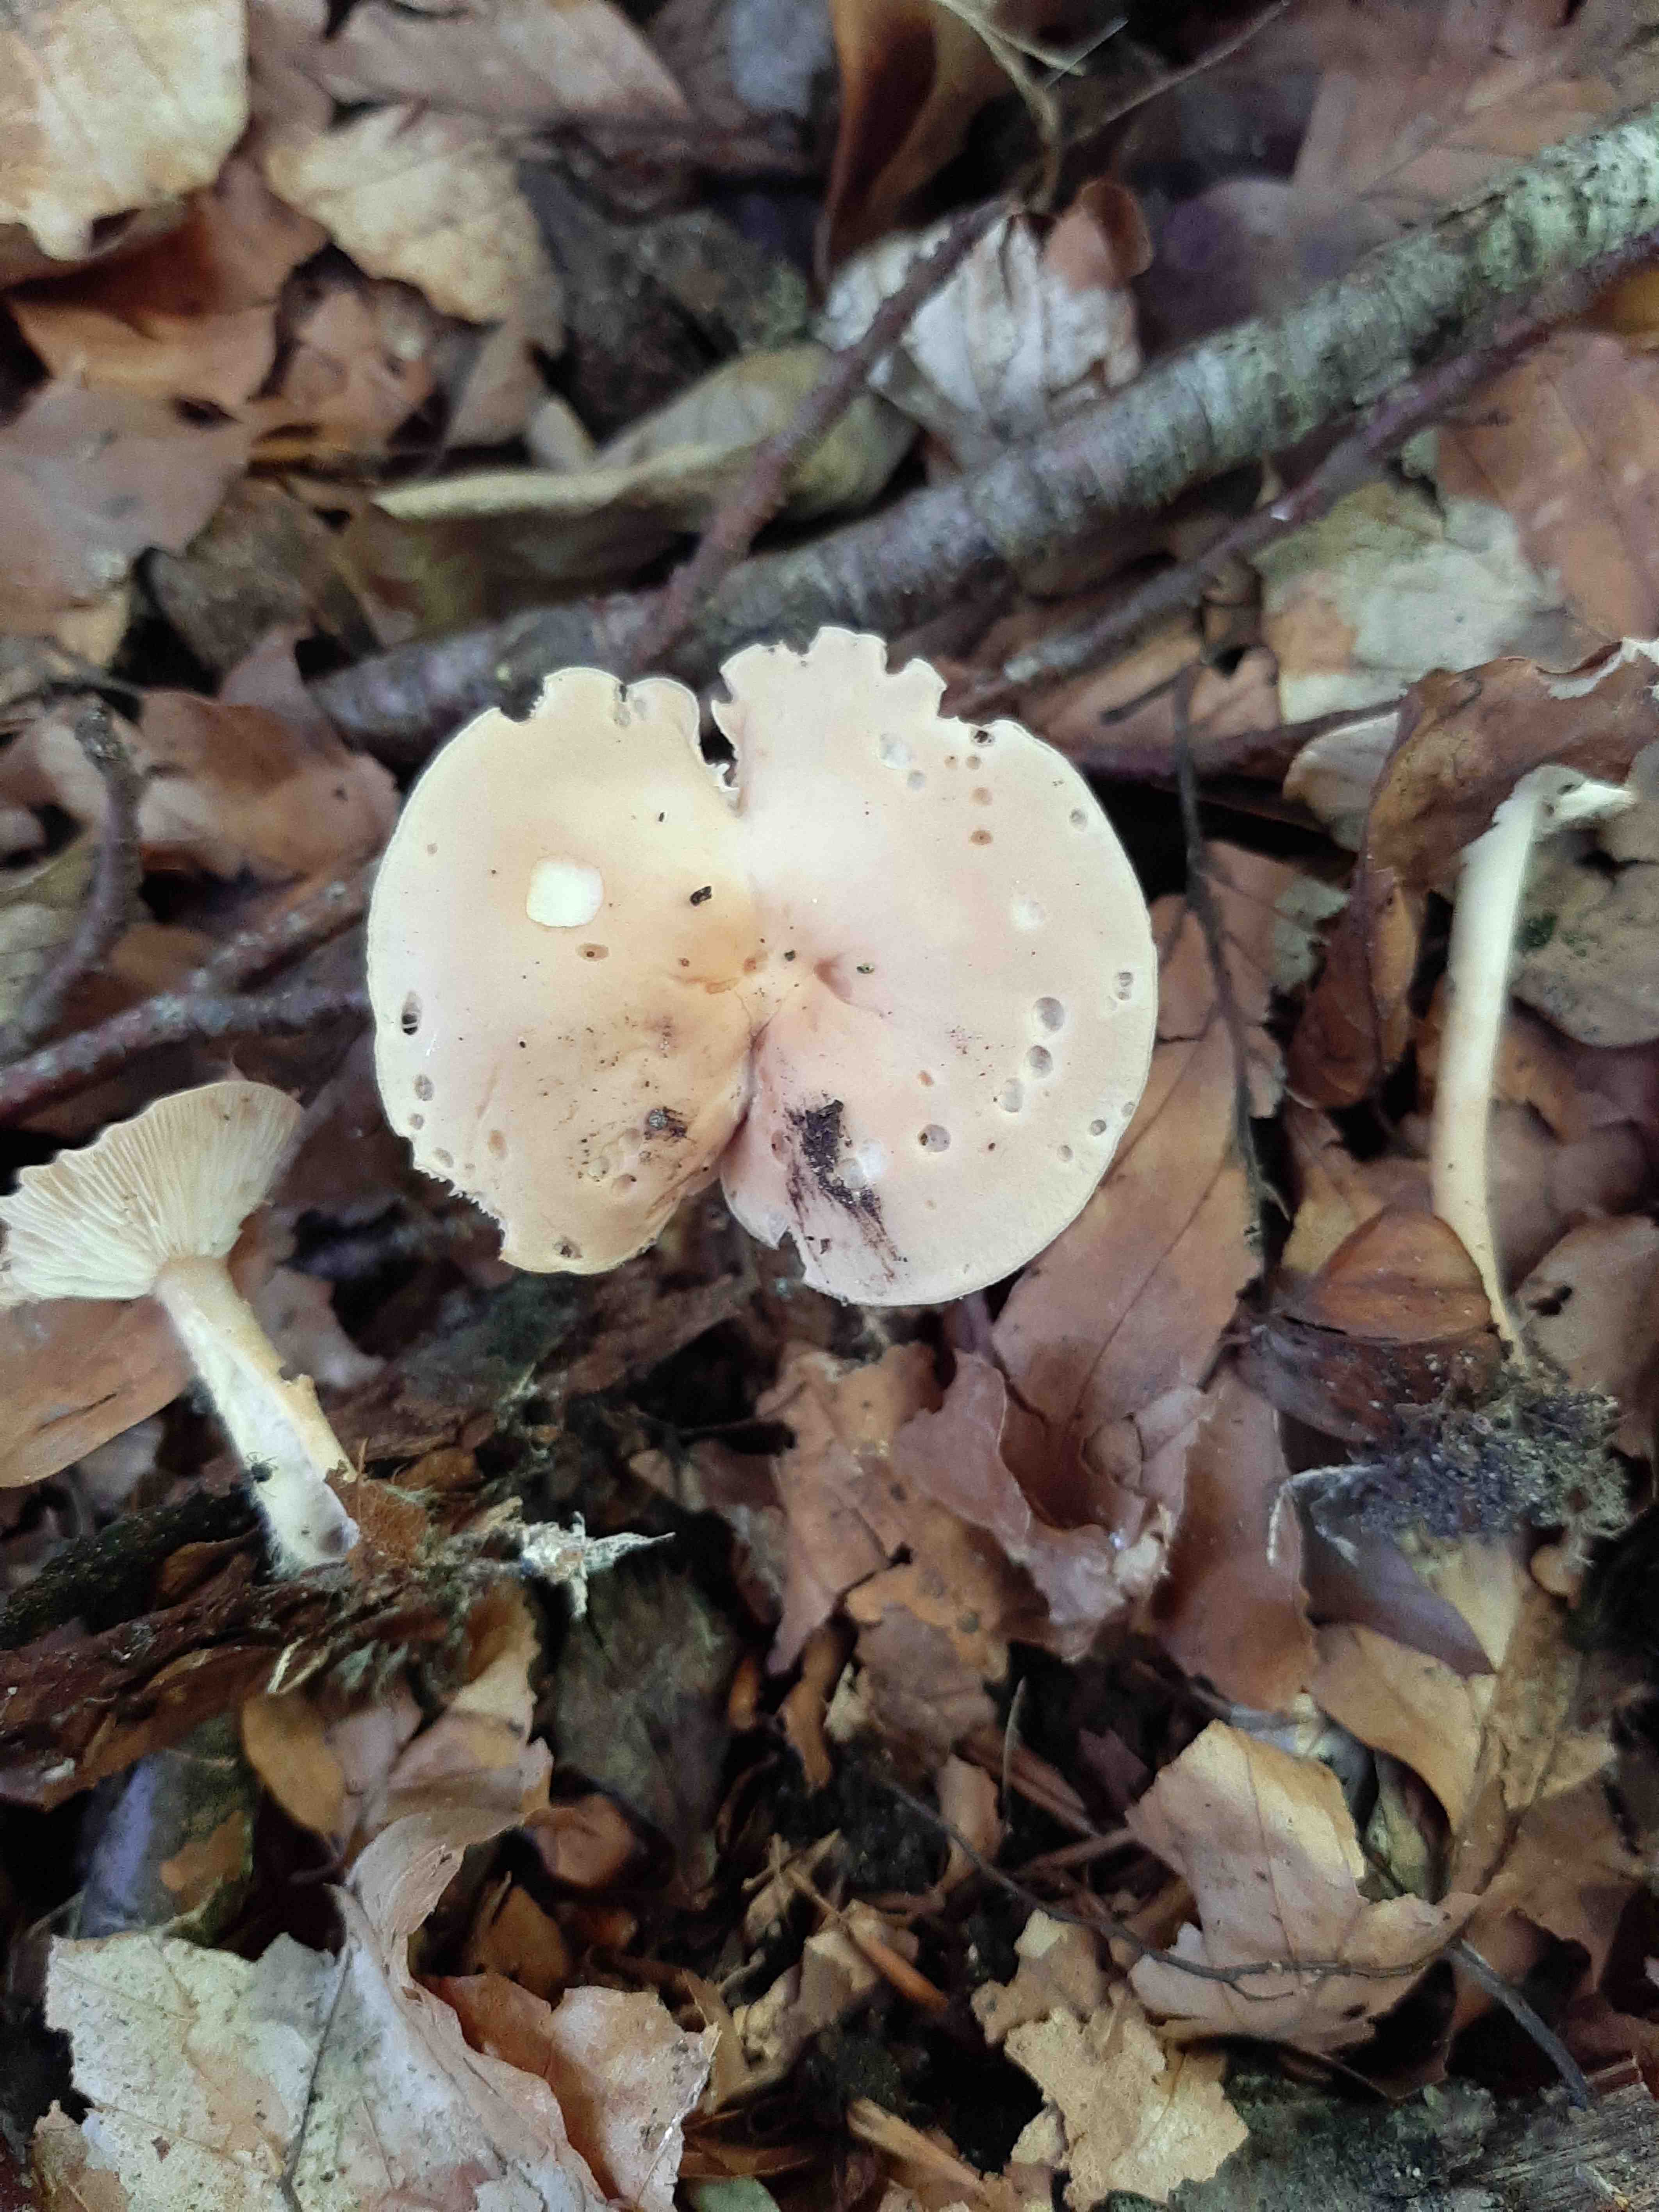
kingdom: Fungi
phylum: Basidiomycota
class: Agaricomycetes
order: Agaricales
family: Omphalotaceae
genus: Gymnopus
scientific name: Gymnopus
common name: fladhat
